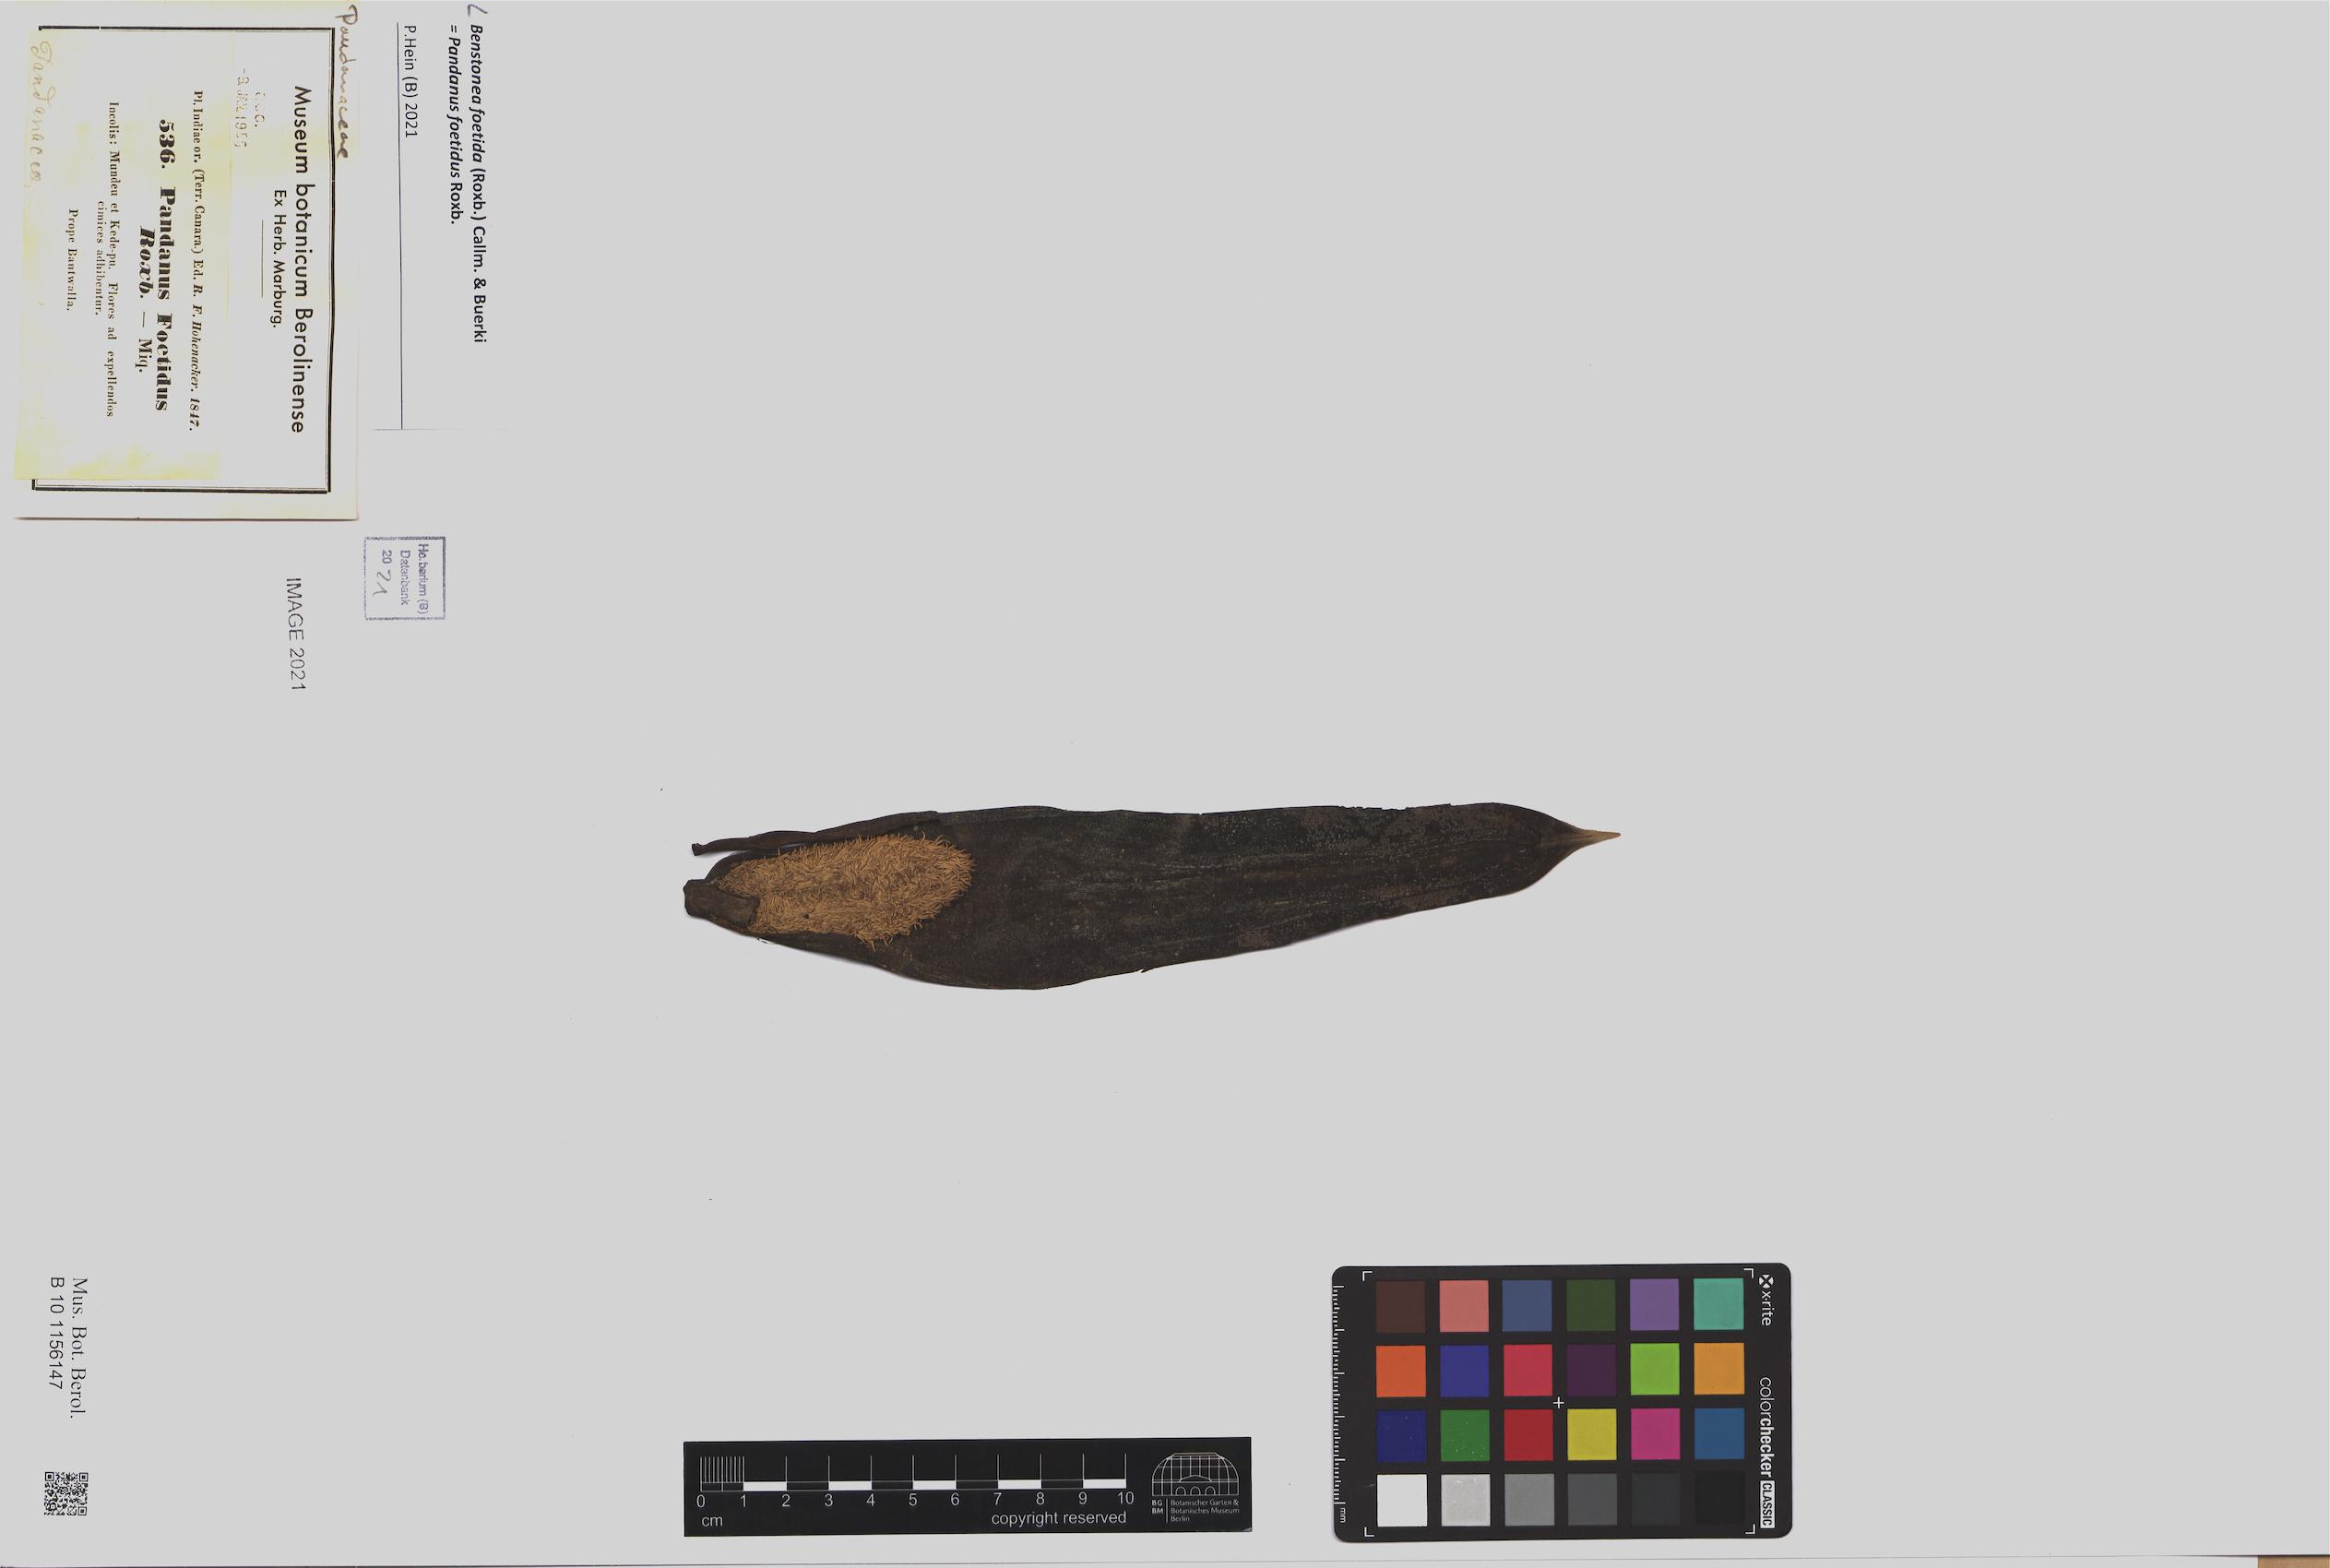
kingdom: Plantae
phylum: Tracheophyta
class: Liliopsida
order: Pandanales
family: Pandanaceae
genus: Benstonea
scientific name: Benstonea foetida
